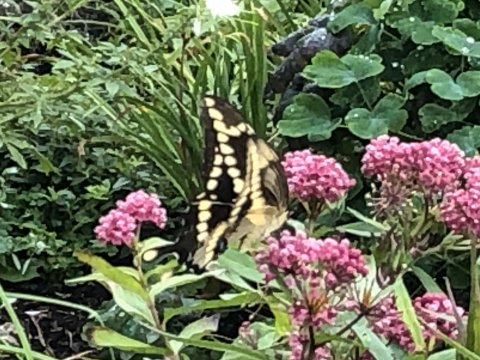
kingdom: Animalia
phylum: Arthropoda
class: Insecta
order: Lepidoptera
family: Papilionidae
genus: Papilio
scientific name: Papilio cresphontes
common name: Eastern Giant Swallowtail
